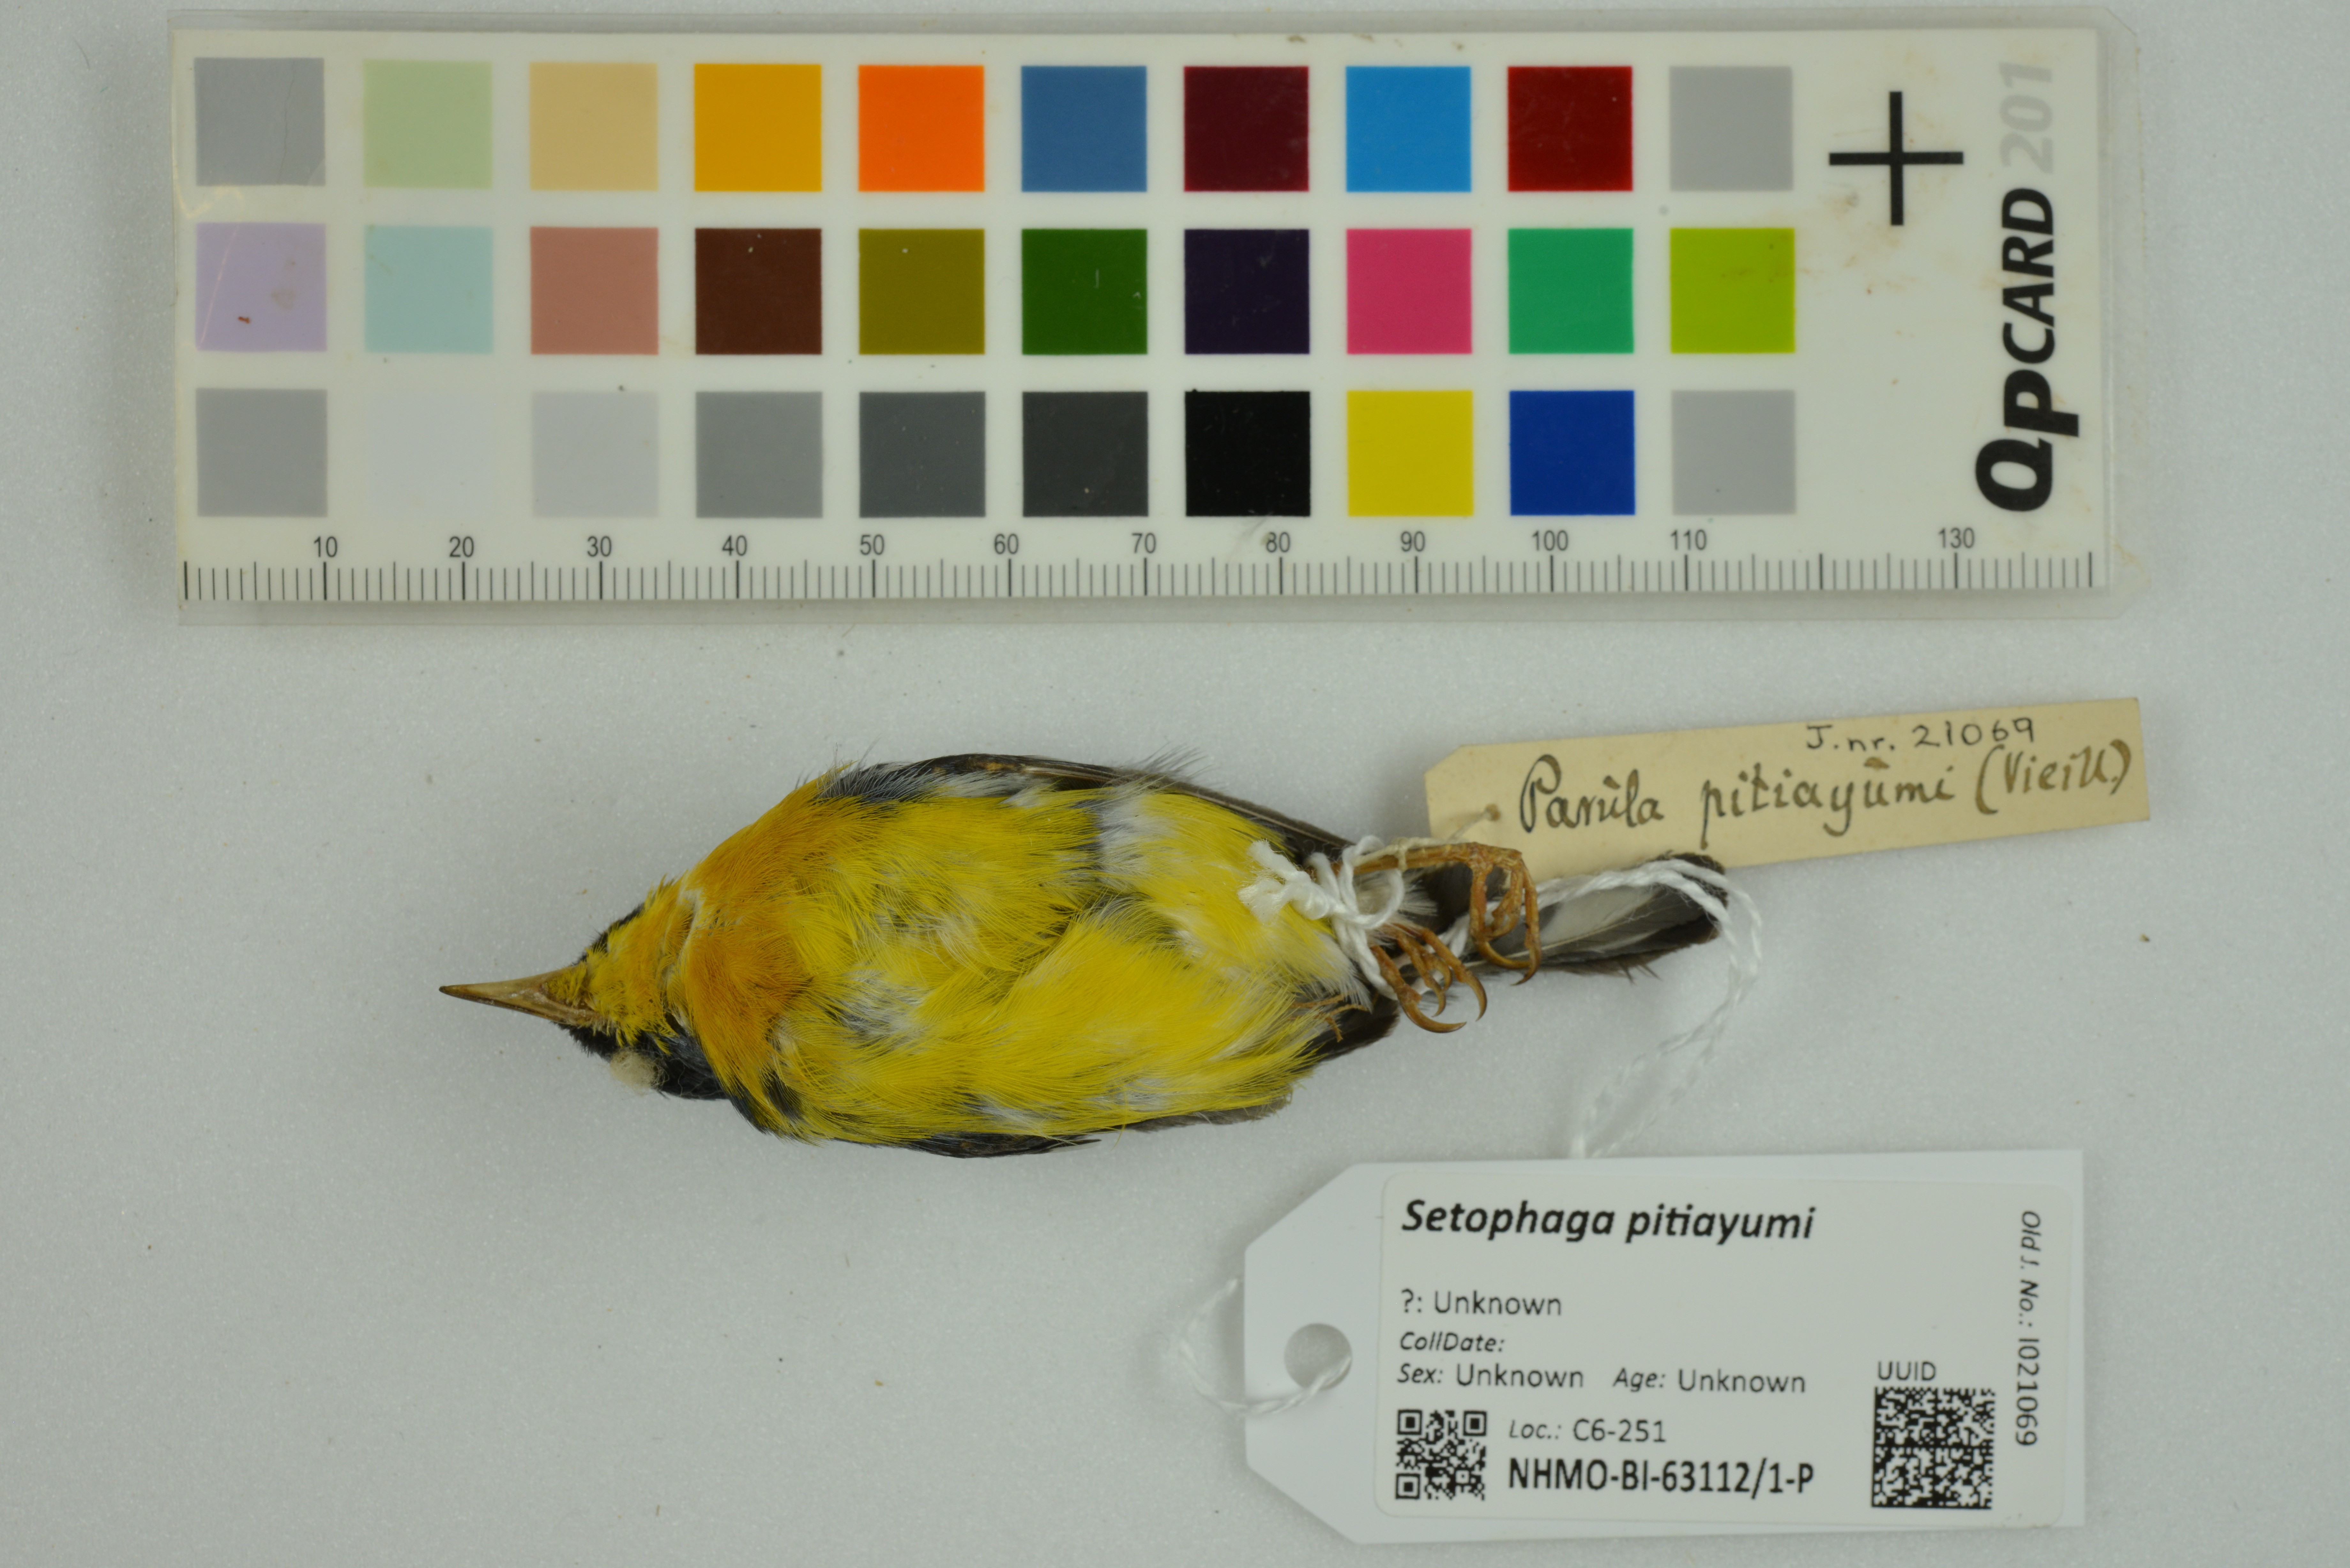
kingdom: Animalia
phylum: Chordata
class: Aves
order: Passeriformes
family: Parulidae
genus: Setophaga
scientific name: Setophaga pitiayumi
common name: Tropical parula
